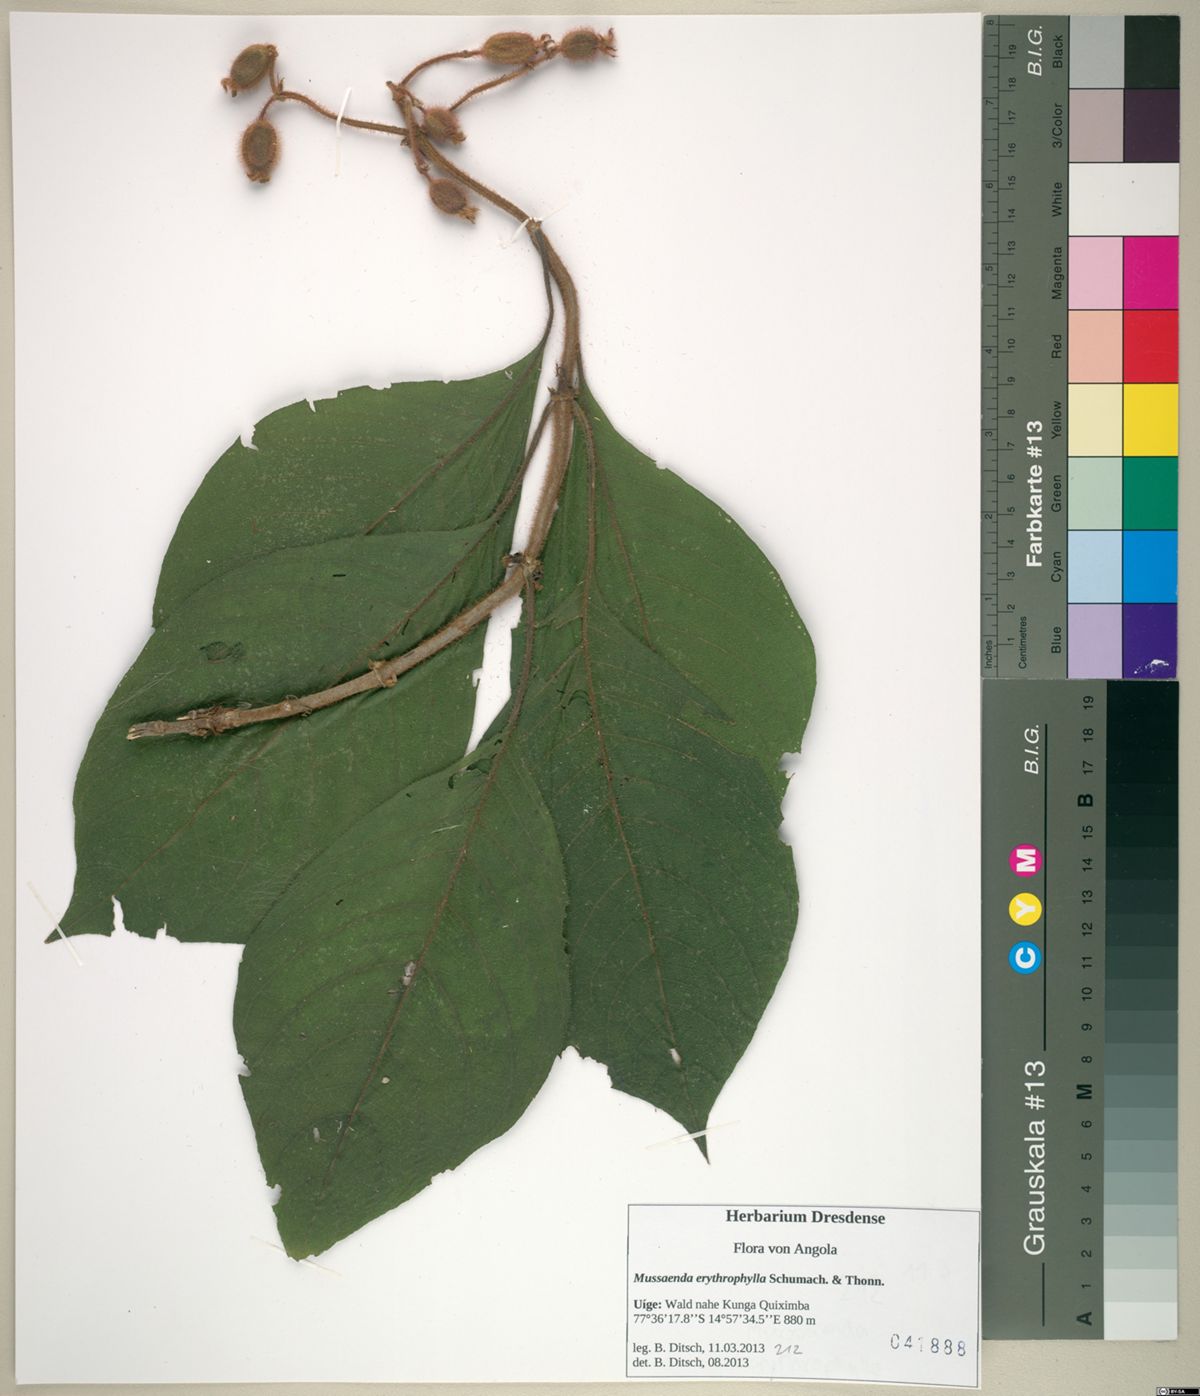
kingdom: Plantae
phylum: Tracheophyta
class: Magnoliopsida
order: Gentianales
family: Rubiaceae
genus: Mussaenda
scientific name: Mussaenda erythrophylla
